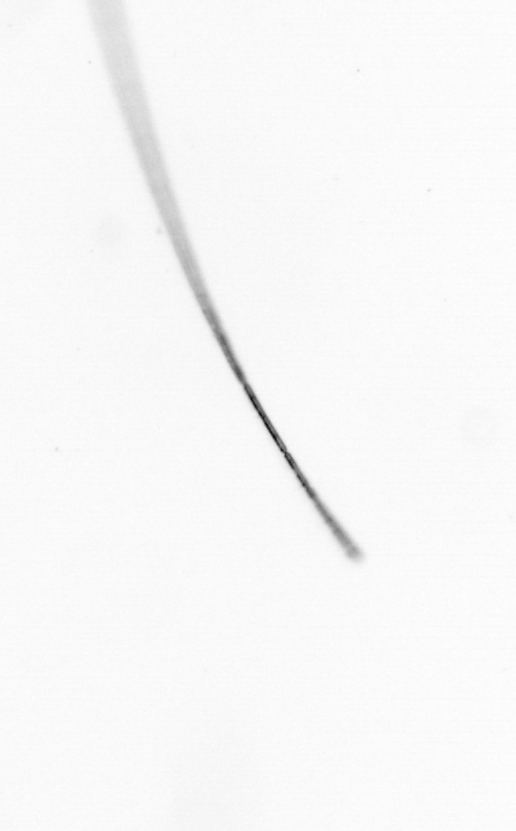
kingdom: Chromista
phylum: Ochrophyta
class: Bacillariophyceae
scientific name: Bacillariophyceae
